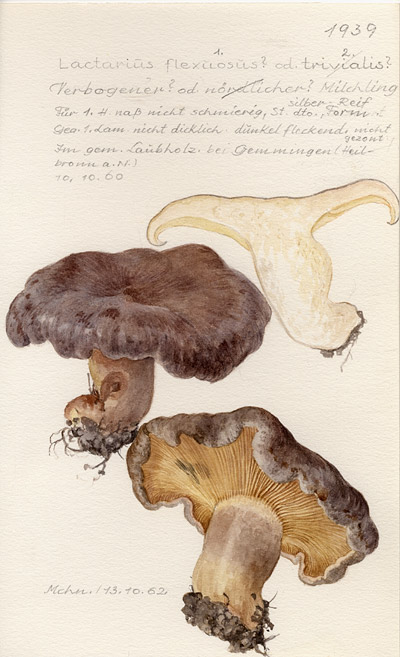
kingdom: Fungi
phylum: Basidiomycota
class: Agaricomycetes
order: Russulales
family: Russulaceae
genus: Lactarius
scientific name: Lactarius flexuosus
